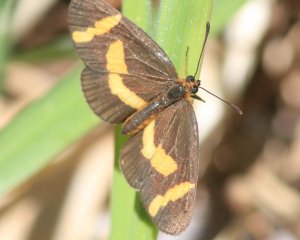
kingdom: Animalia
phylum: Arthropoda
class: Insecta
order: Lepidoptera
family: Nymphalidae
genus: Microtia
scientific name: Microtia elva
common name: Elf
